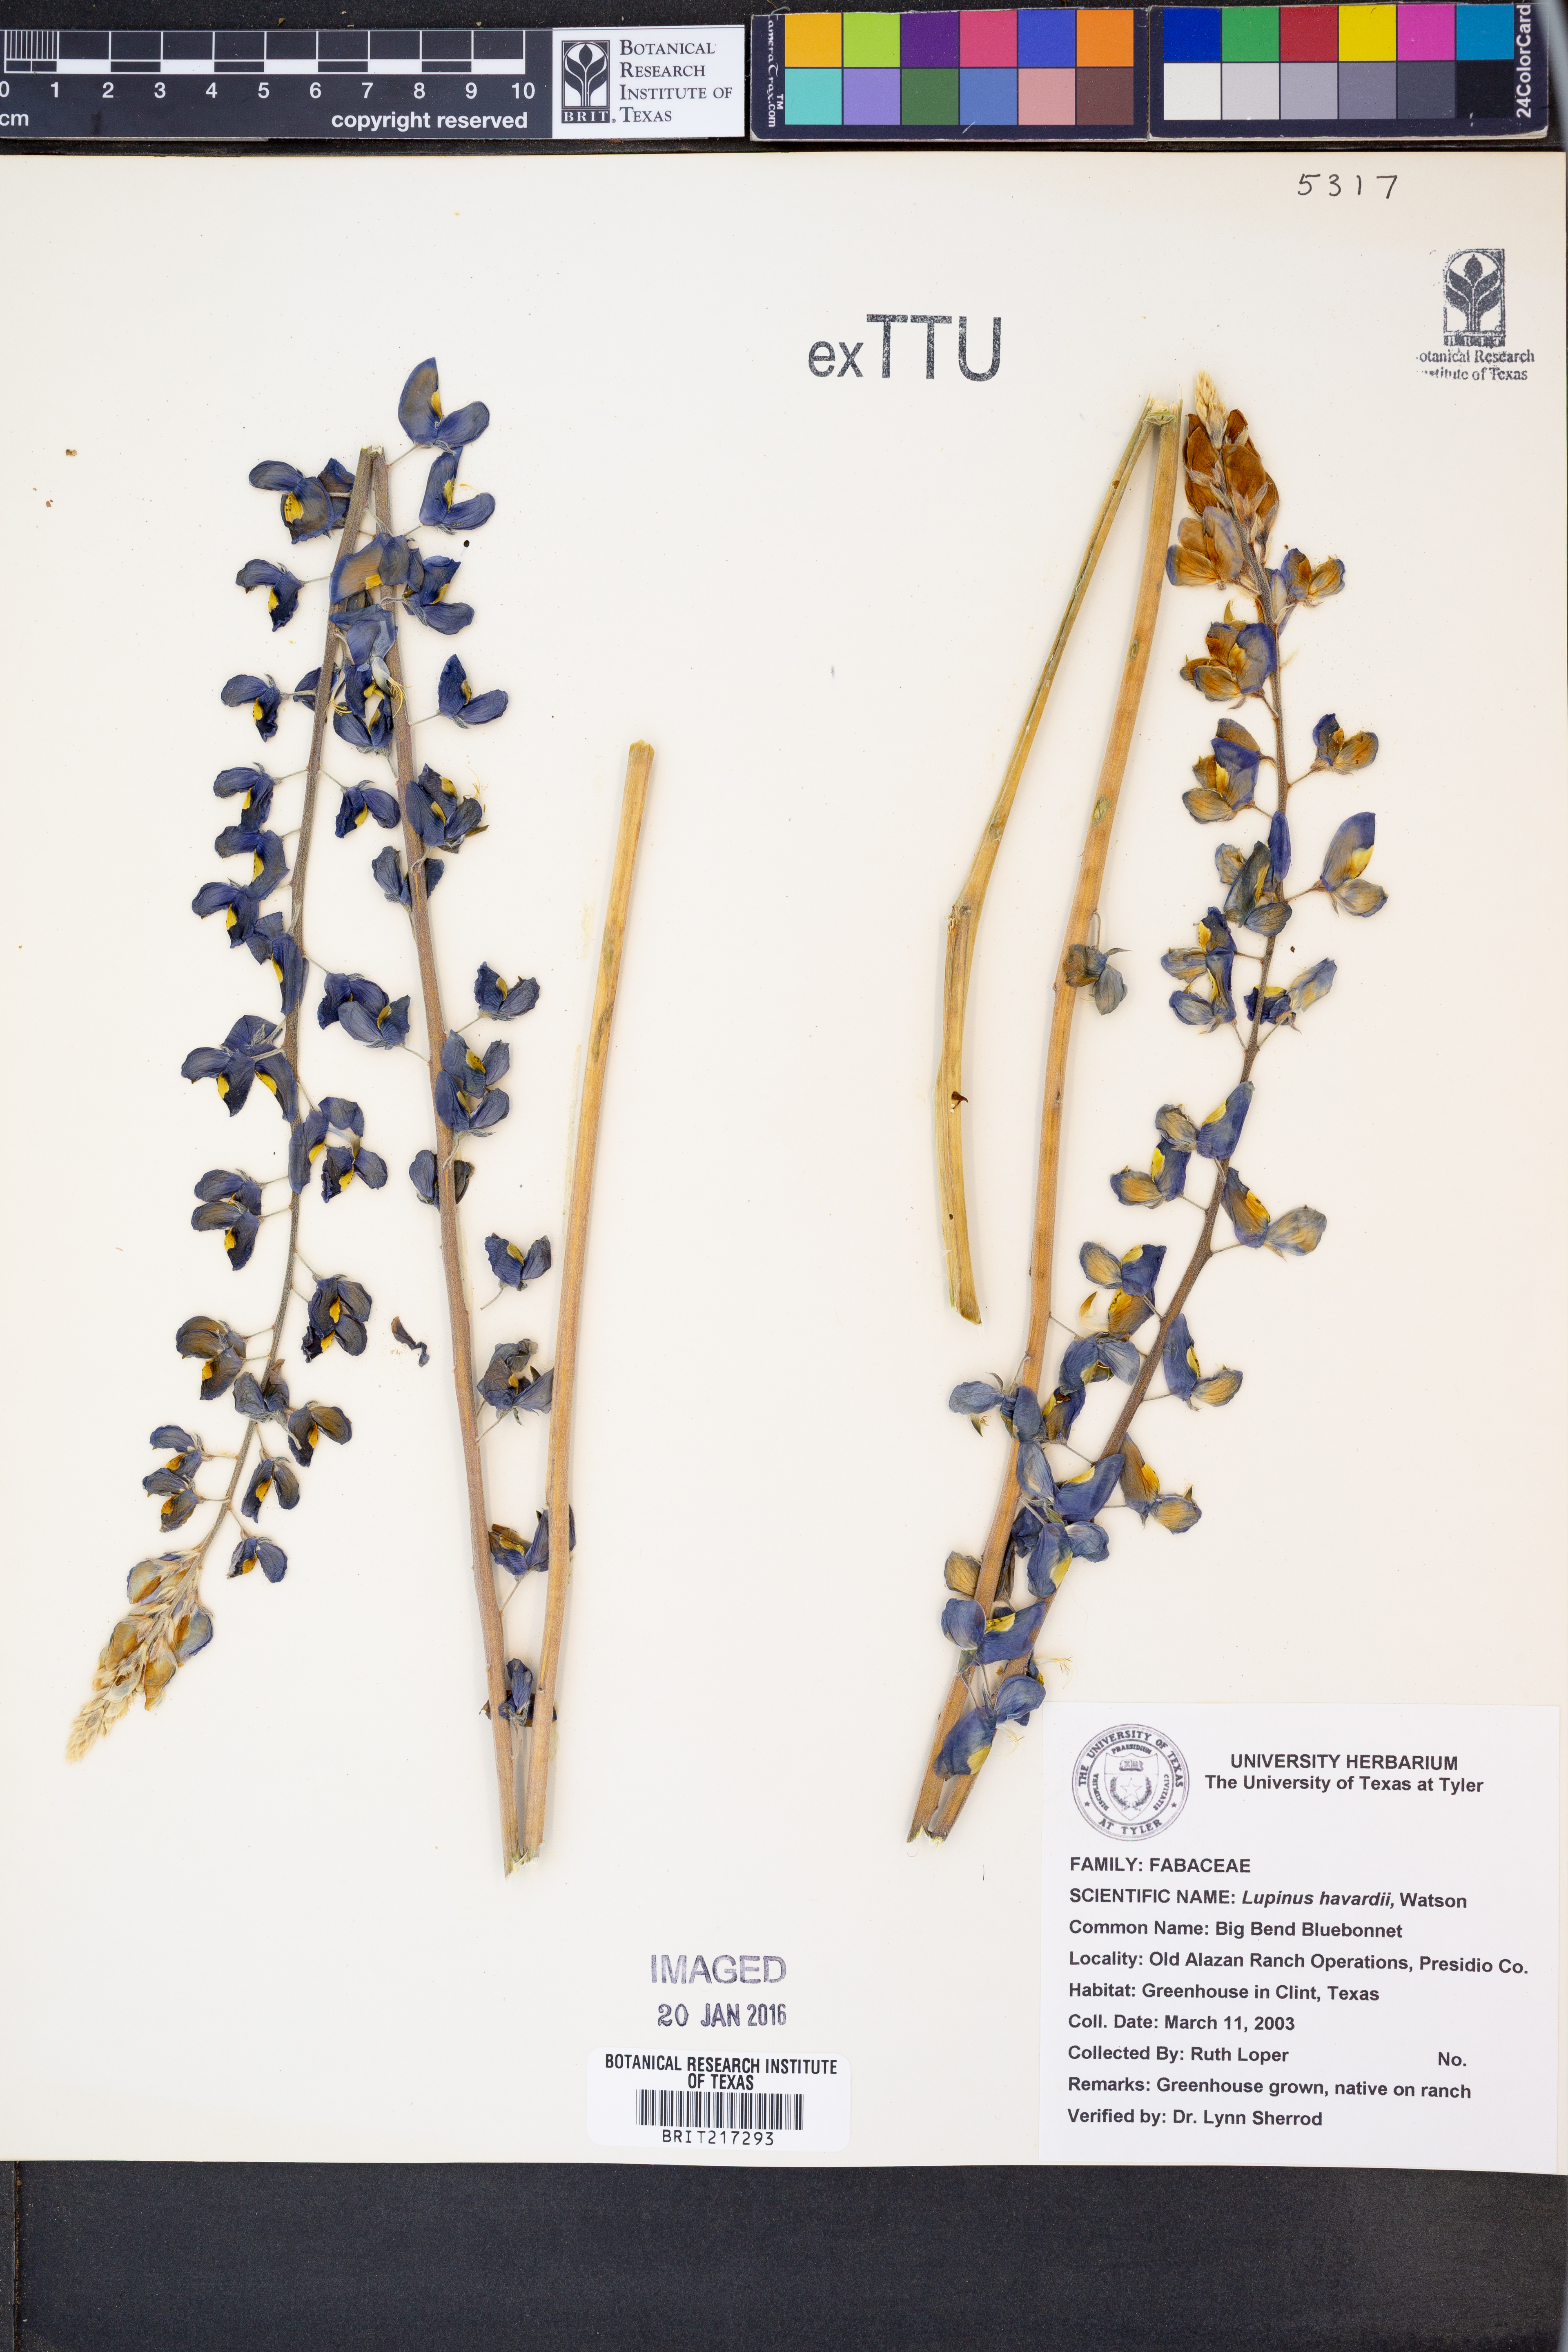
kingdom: Plantae
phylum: Tracheophyta
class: Magnoliopsida
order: Fabales
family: Fabaceae
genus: Lupinus
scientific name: Lupinus havardii
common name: Chisos bluebonnet
